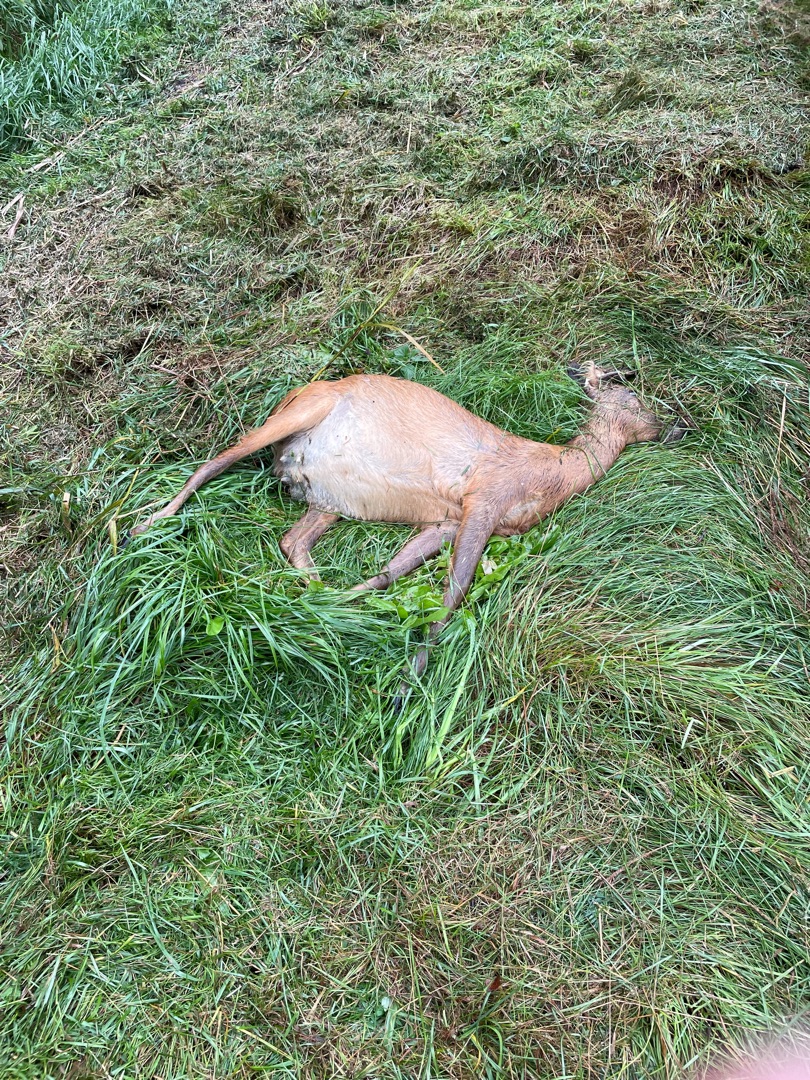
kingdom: Animalia
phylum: Chordata
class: Mammalia
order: Artiodactyla
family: Cervidae
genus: Capreolus
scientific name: Capreolus capreolus
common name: Rådyr
